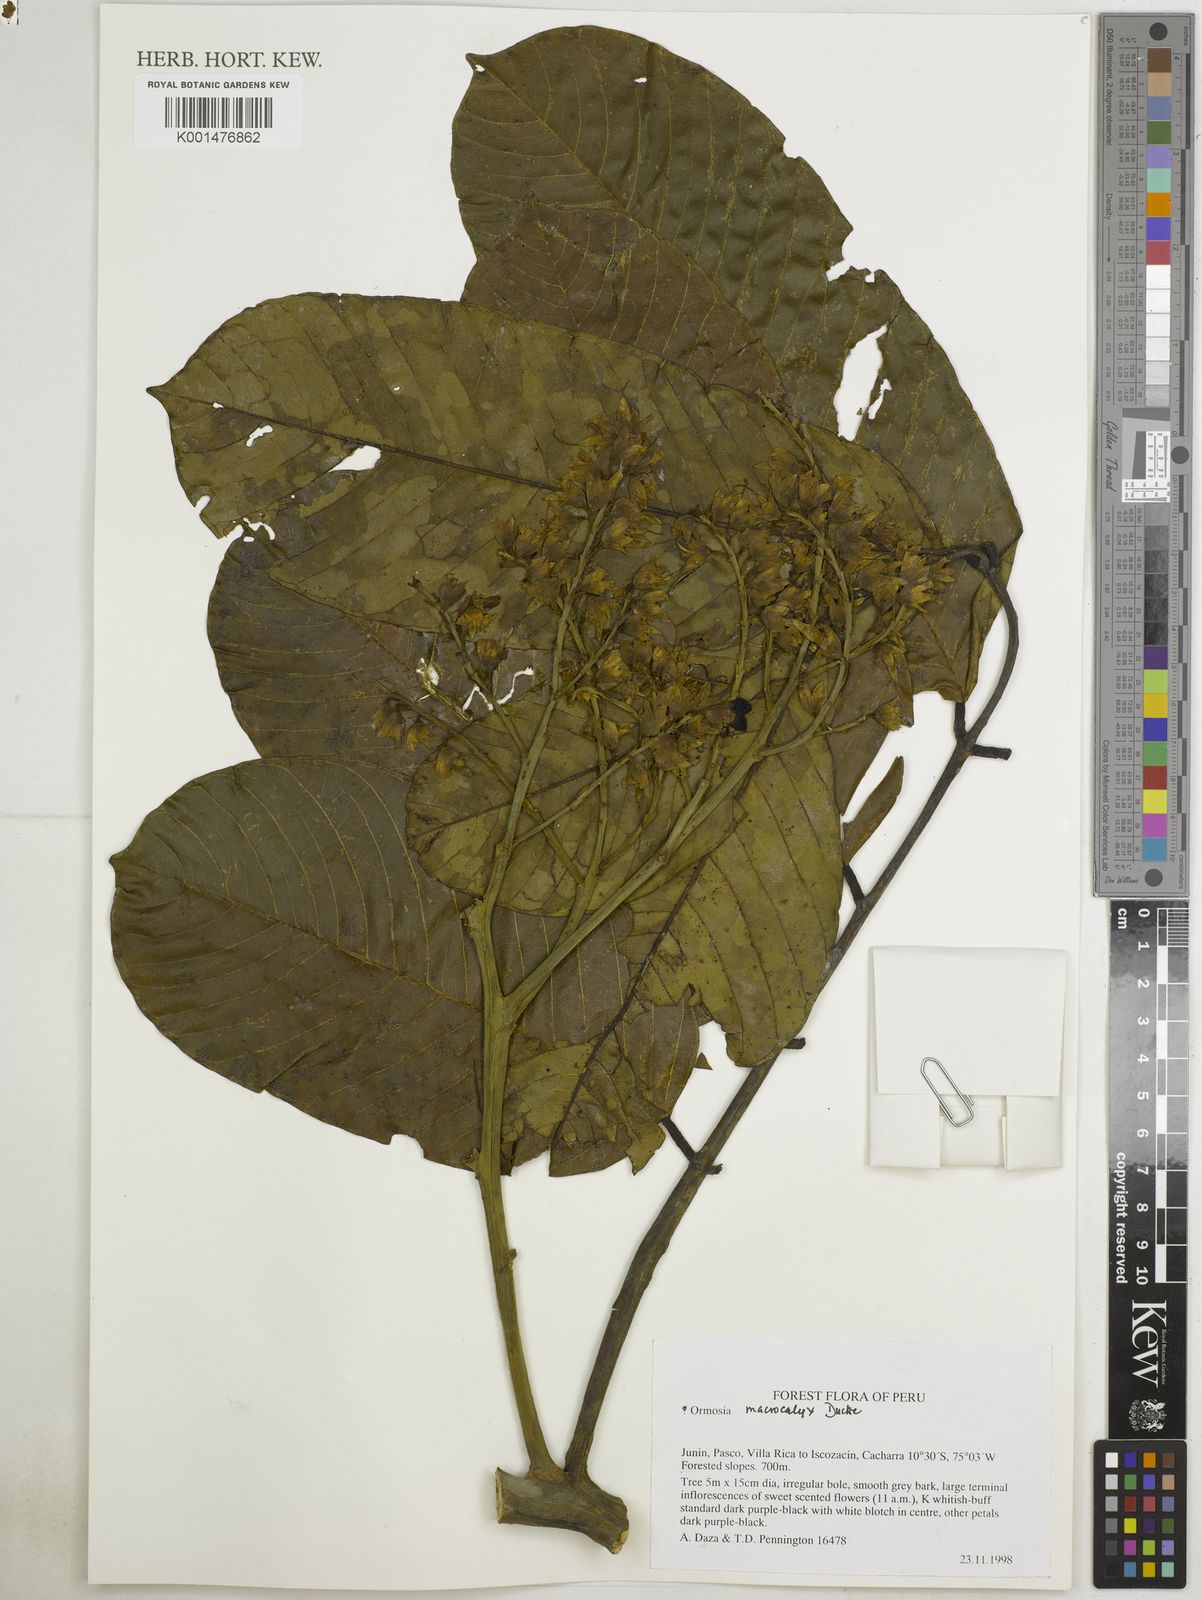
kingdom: Plantae
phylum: Tracheophyta
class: Magnoliopsida
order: Fabales
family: Fabaceae
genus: Ormosia
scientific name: Ormosia macrocalyx
